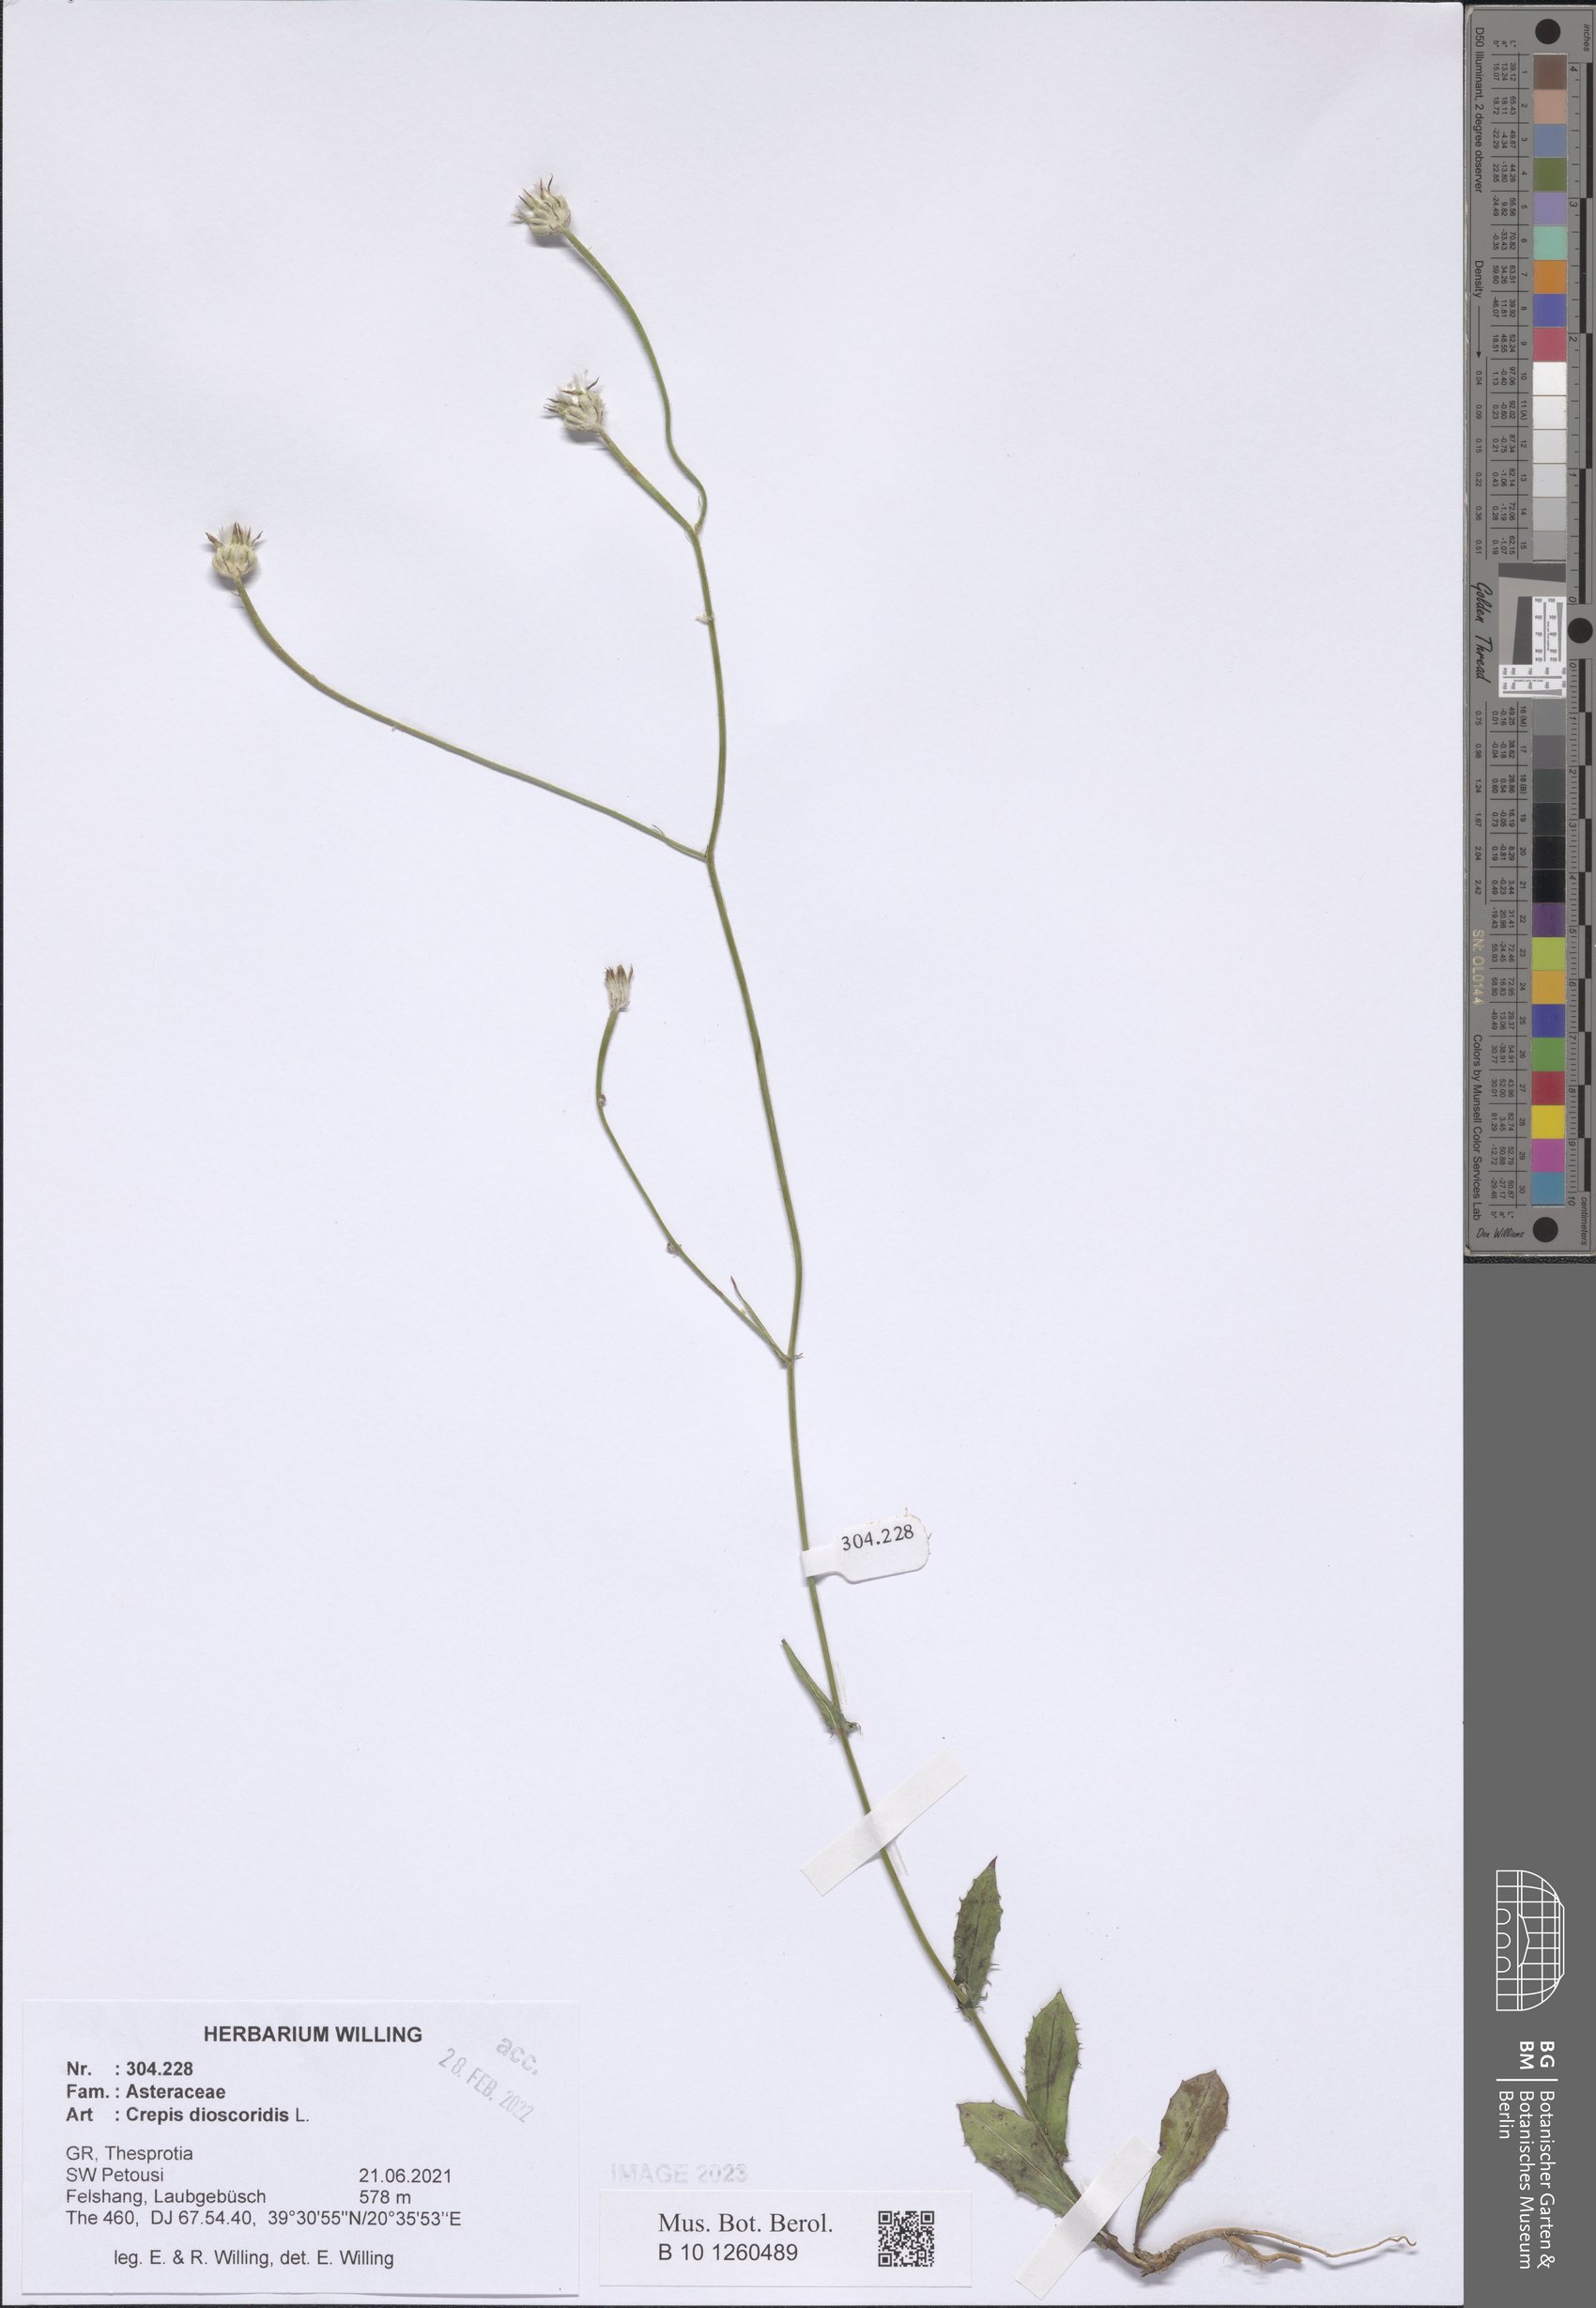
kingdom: Plantae
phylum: Tracheophyta
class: Magnoliopsida
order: Asterales
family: Asteraceae
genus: Crepis
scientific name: Crepis dioscoridis
